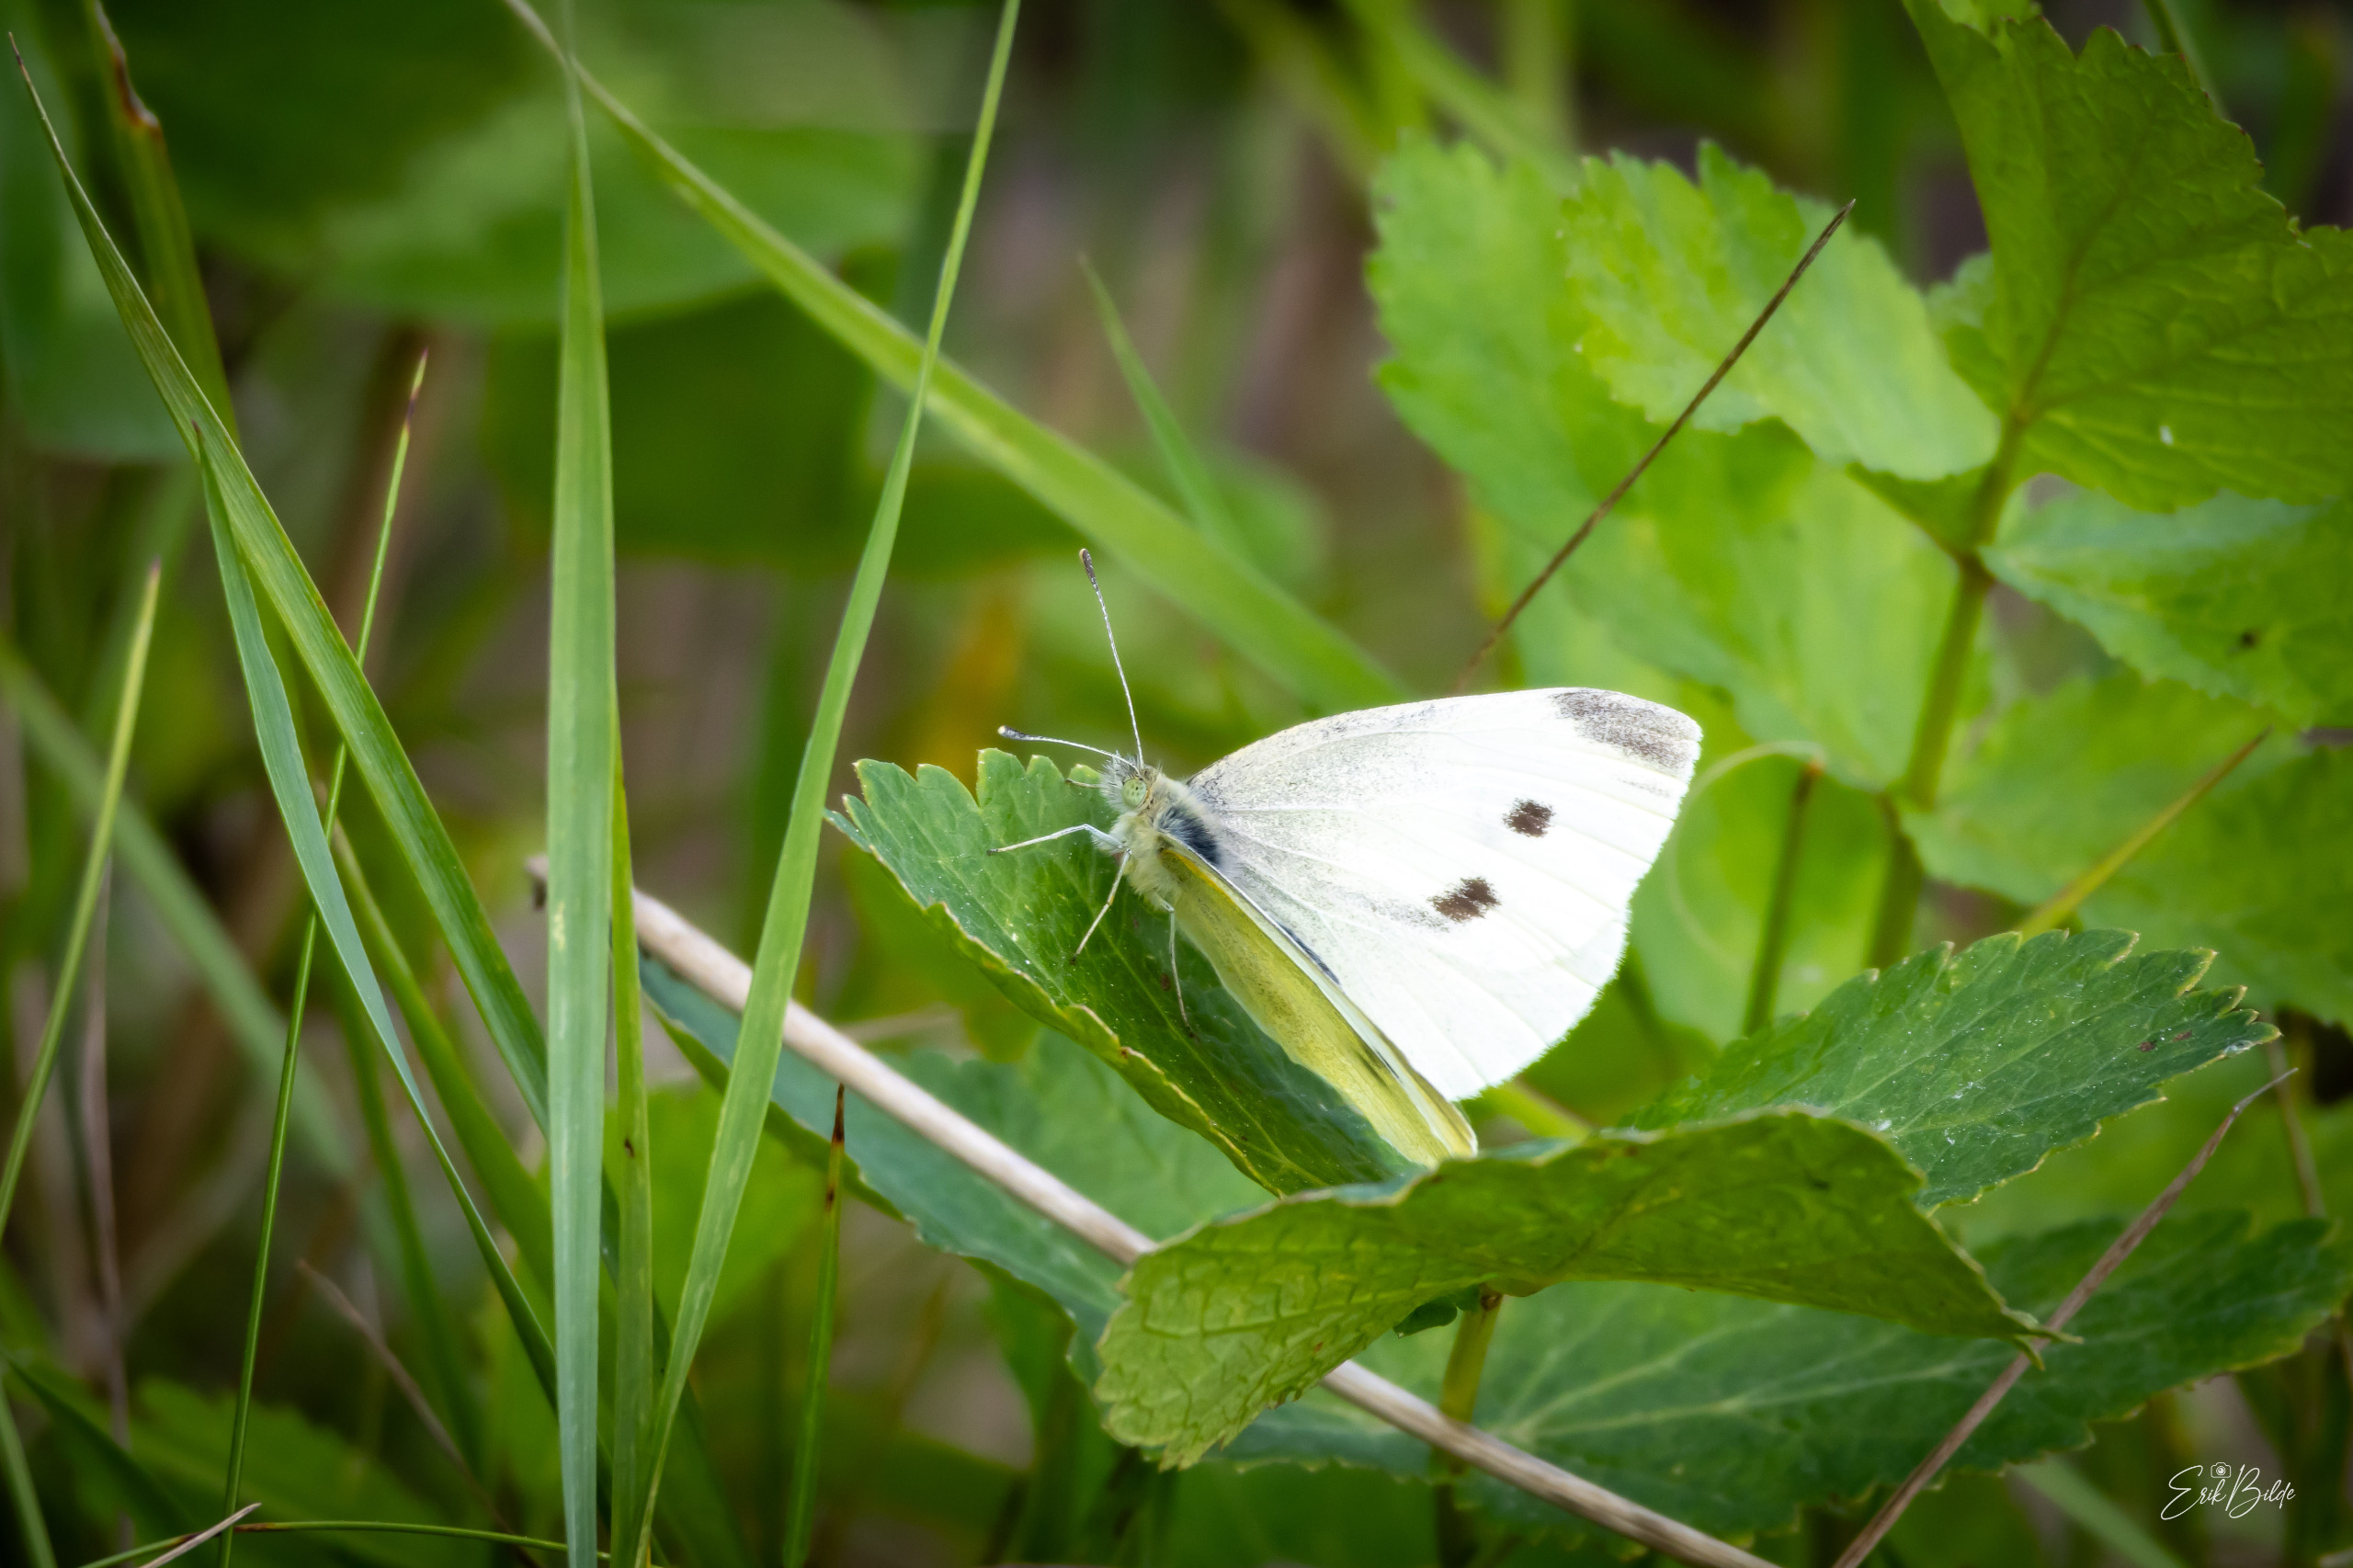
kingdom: Animalia
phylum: Arthropoda
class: Insecta
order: Lepidoptera
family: Pieridae
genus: Pieris
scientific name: Pieris rapae
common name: Lille kålsommerfugl
